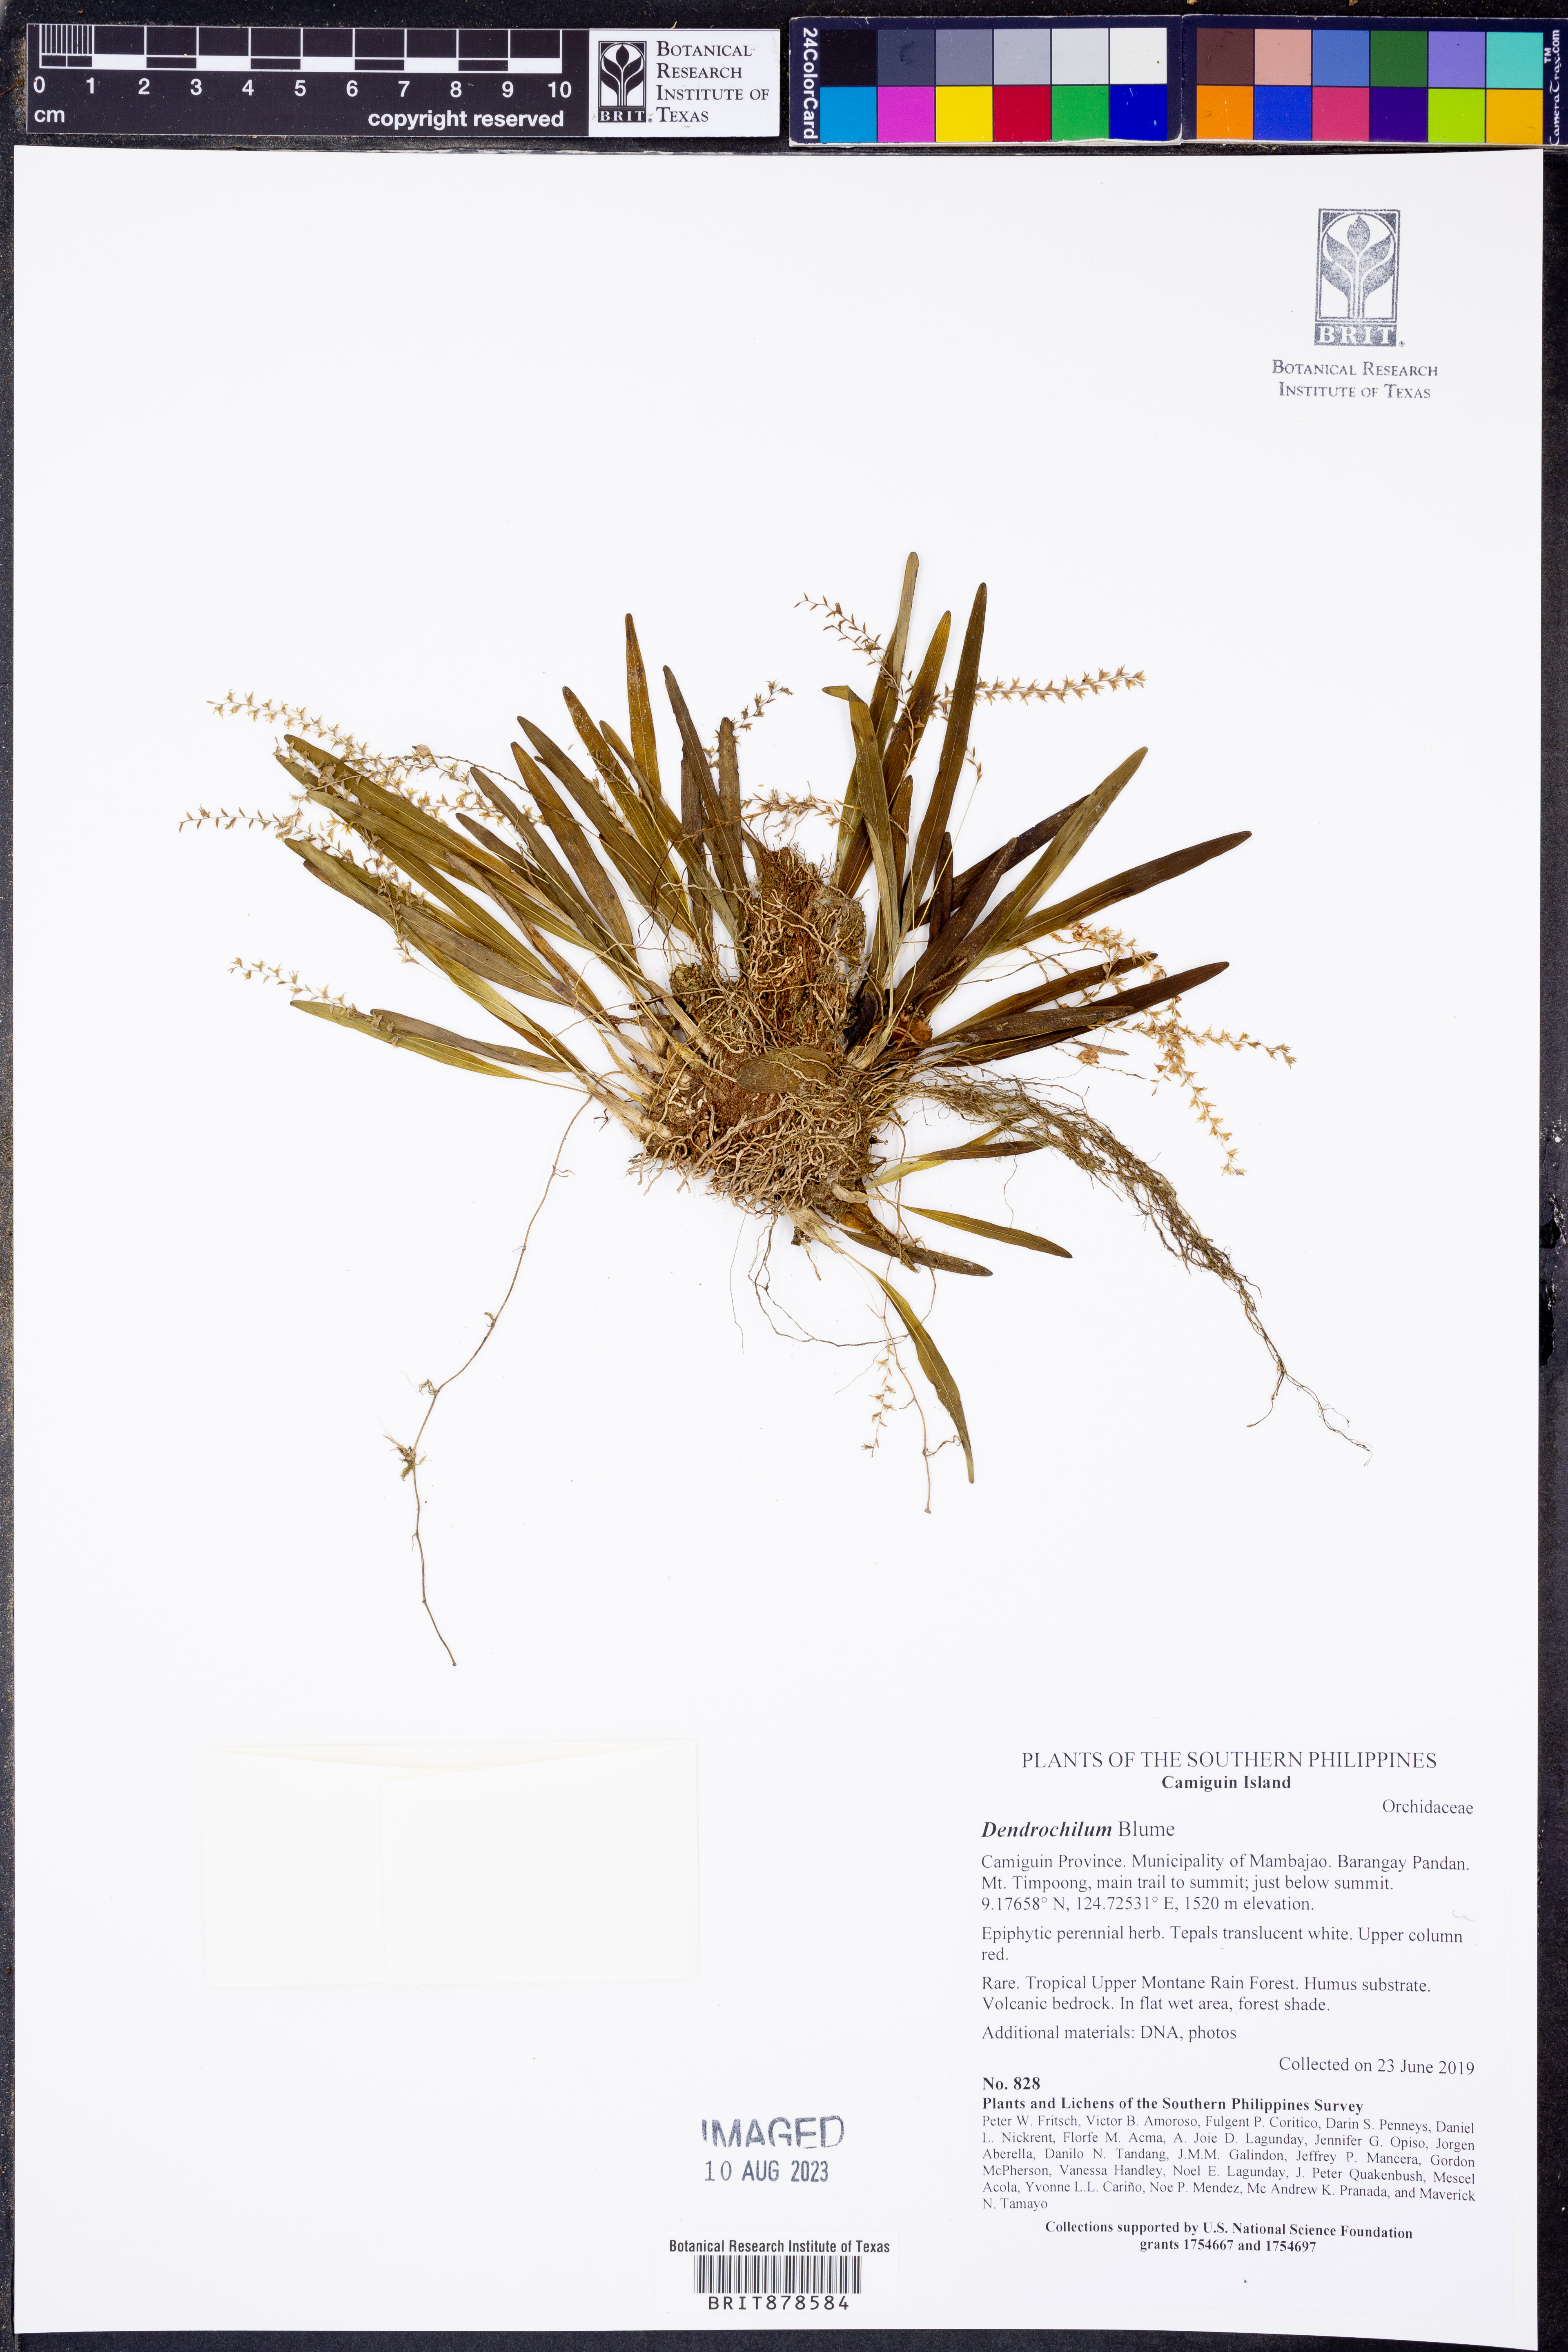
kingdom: Plantae
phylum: Tracheophyta
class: Liliopsida
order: Asparagales
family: Orchidaceae
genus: Coelogyne
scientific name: Coelogyne
